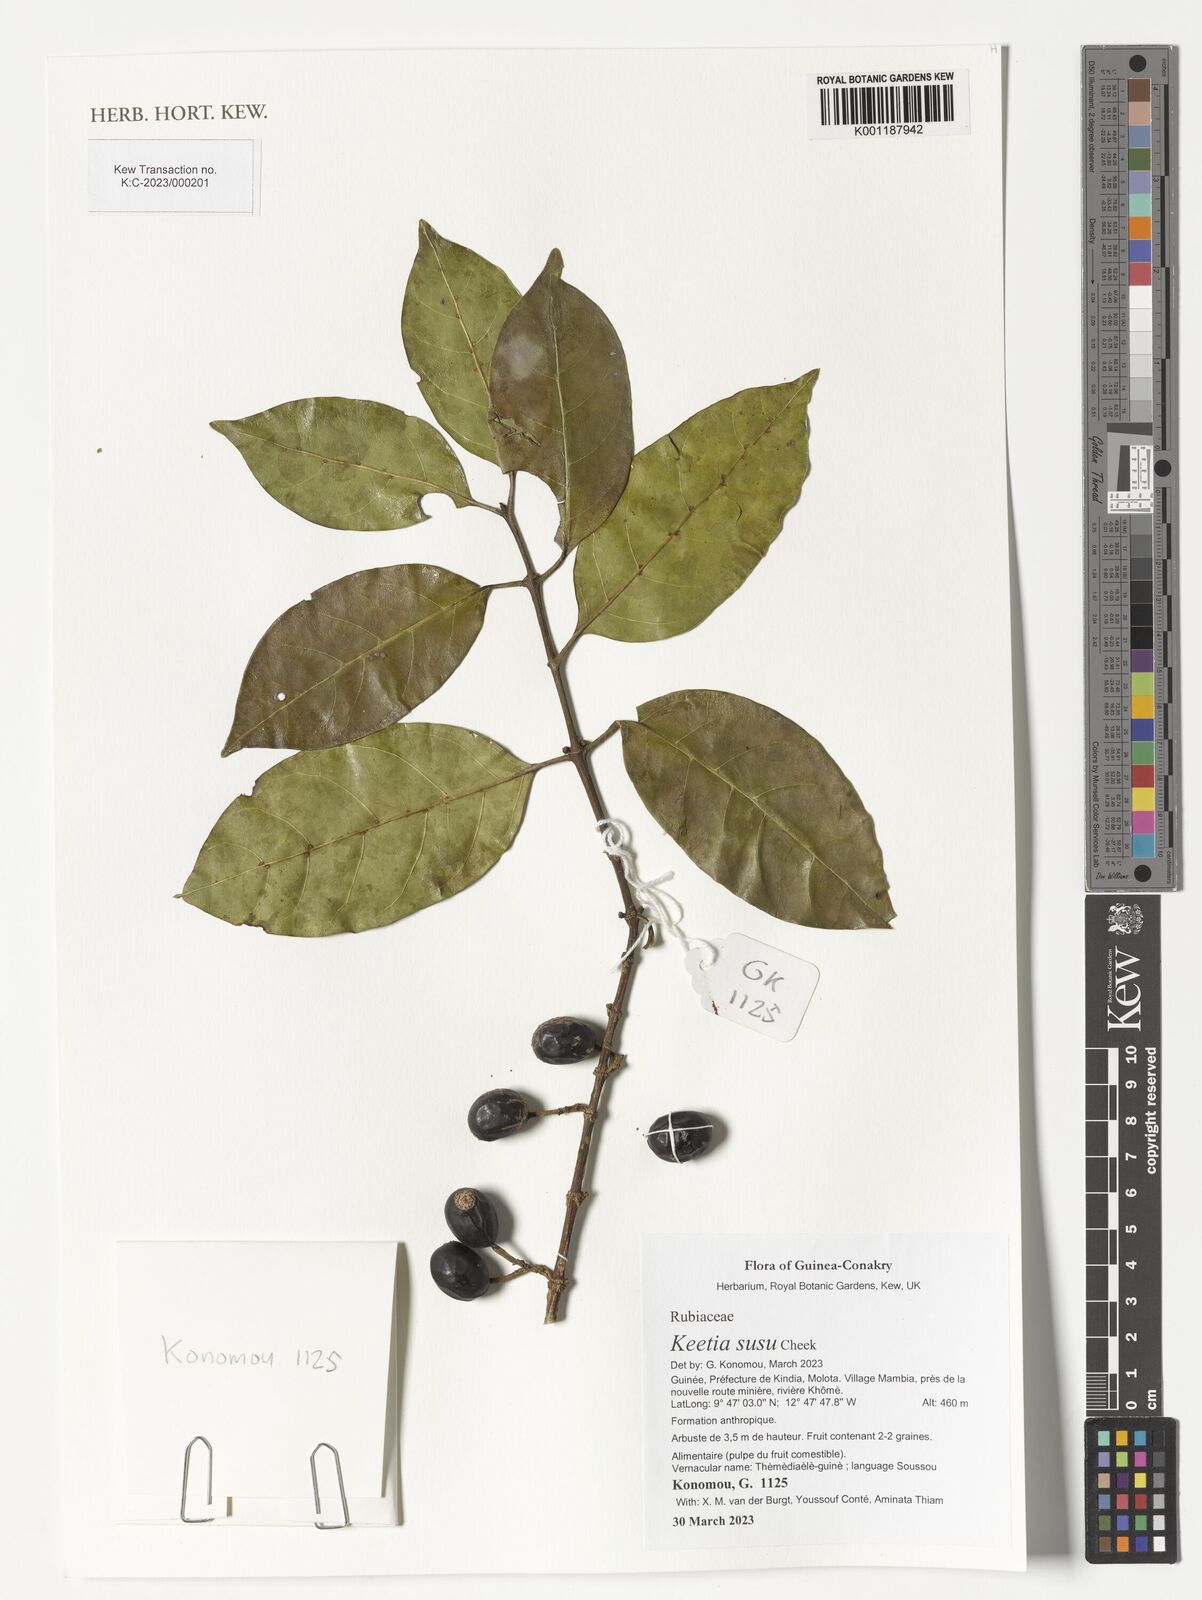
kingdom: Plantae
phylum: Tracheophyta
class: Magnoliopsida
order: Gentianales
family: Rubiaceae
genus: Keetia
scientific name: Keetia susu
